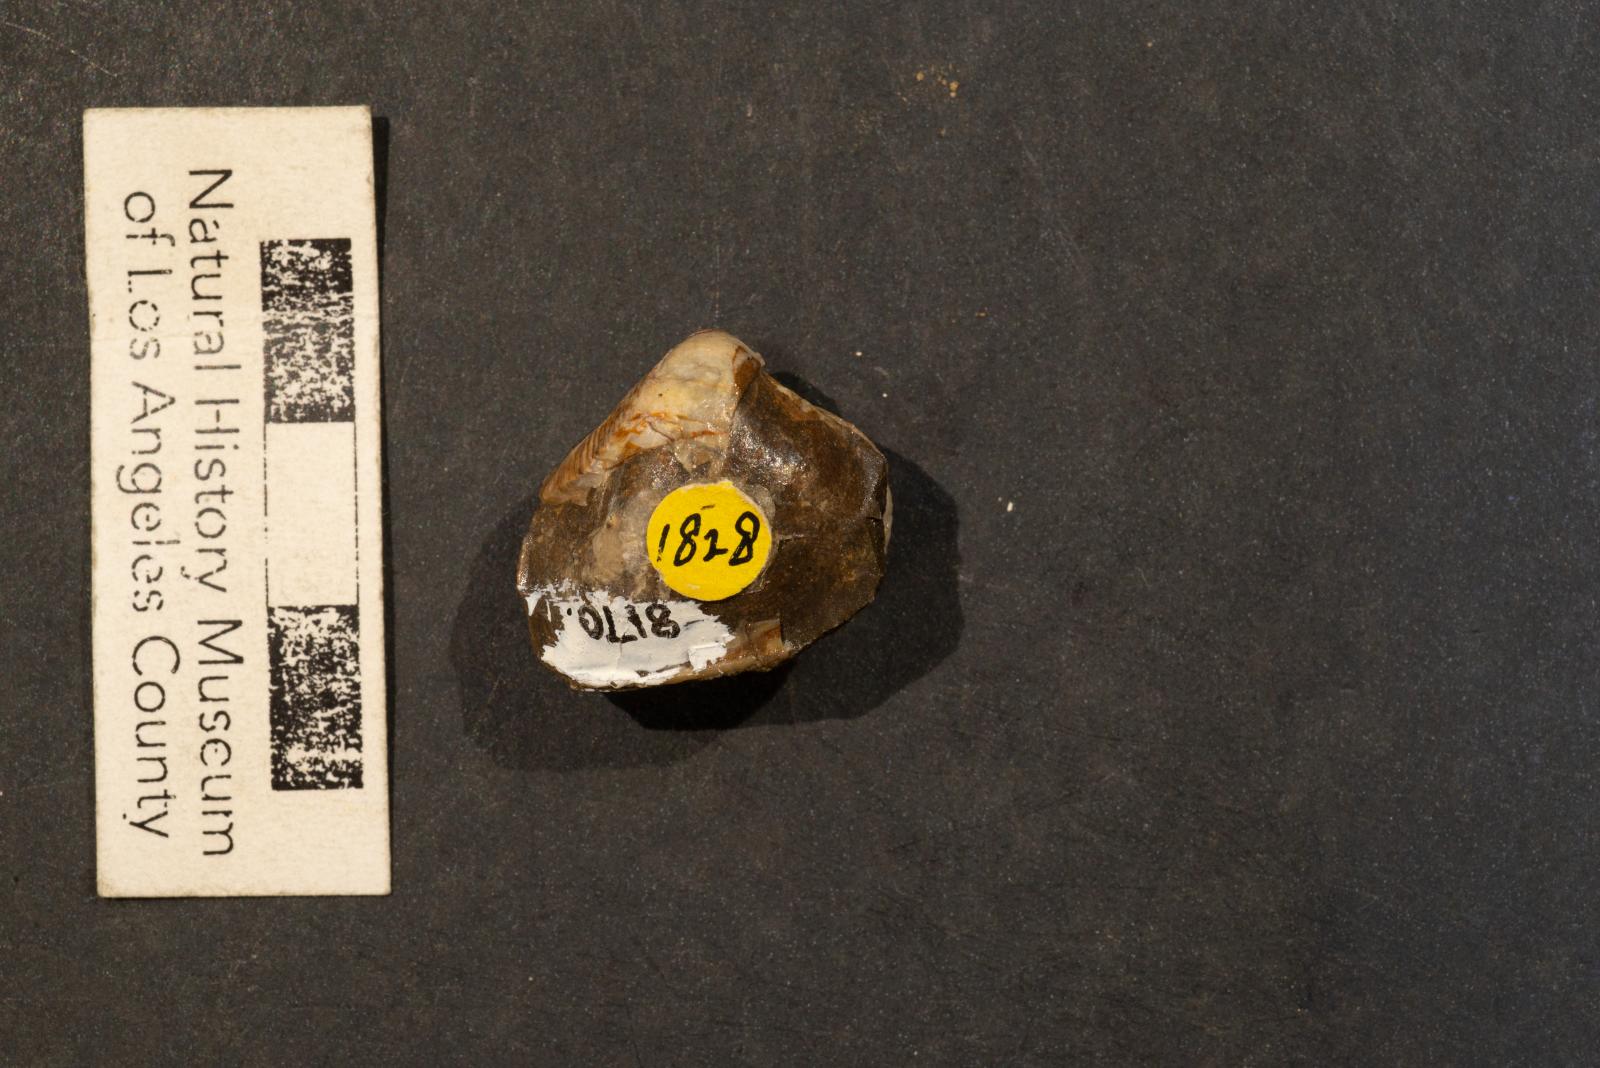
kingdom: Animalia
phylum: Mollusca
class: Bivalvia
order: Carditida
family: Crassatellidae
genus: Crassatella
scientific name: Crassatella gamma
